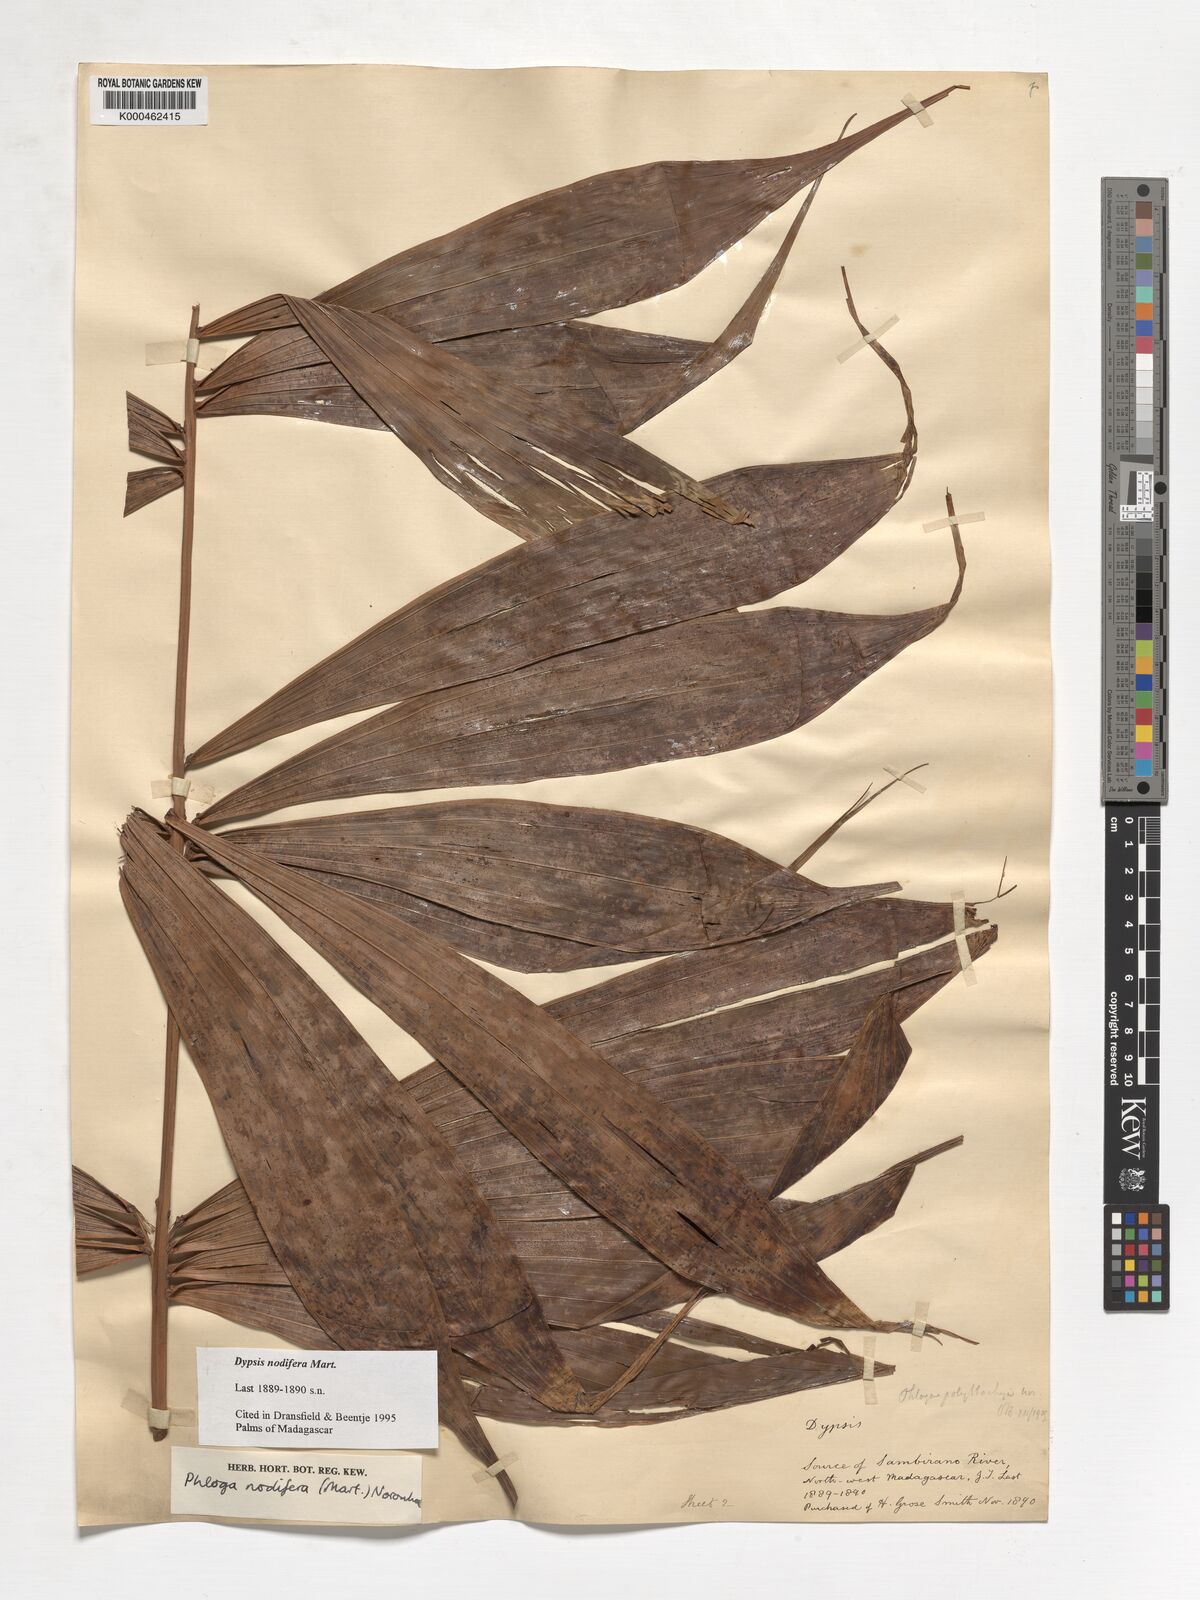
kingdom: Plantae
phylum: Tracheophyta
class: Liliopsida
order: Arecales
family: Arecaceae
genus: Dypsis
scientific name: Dypsis nodifera
